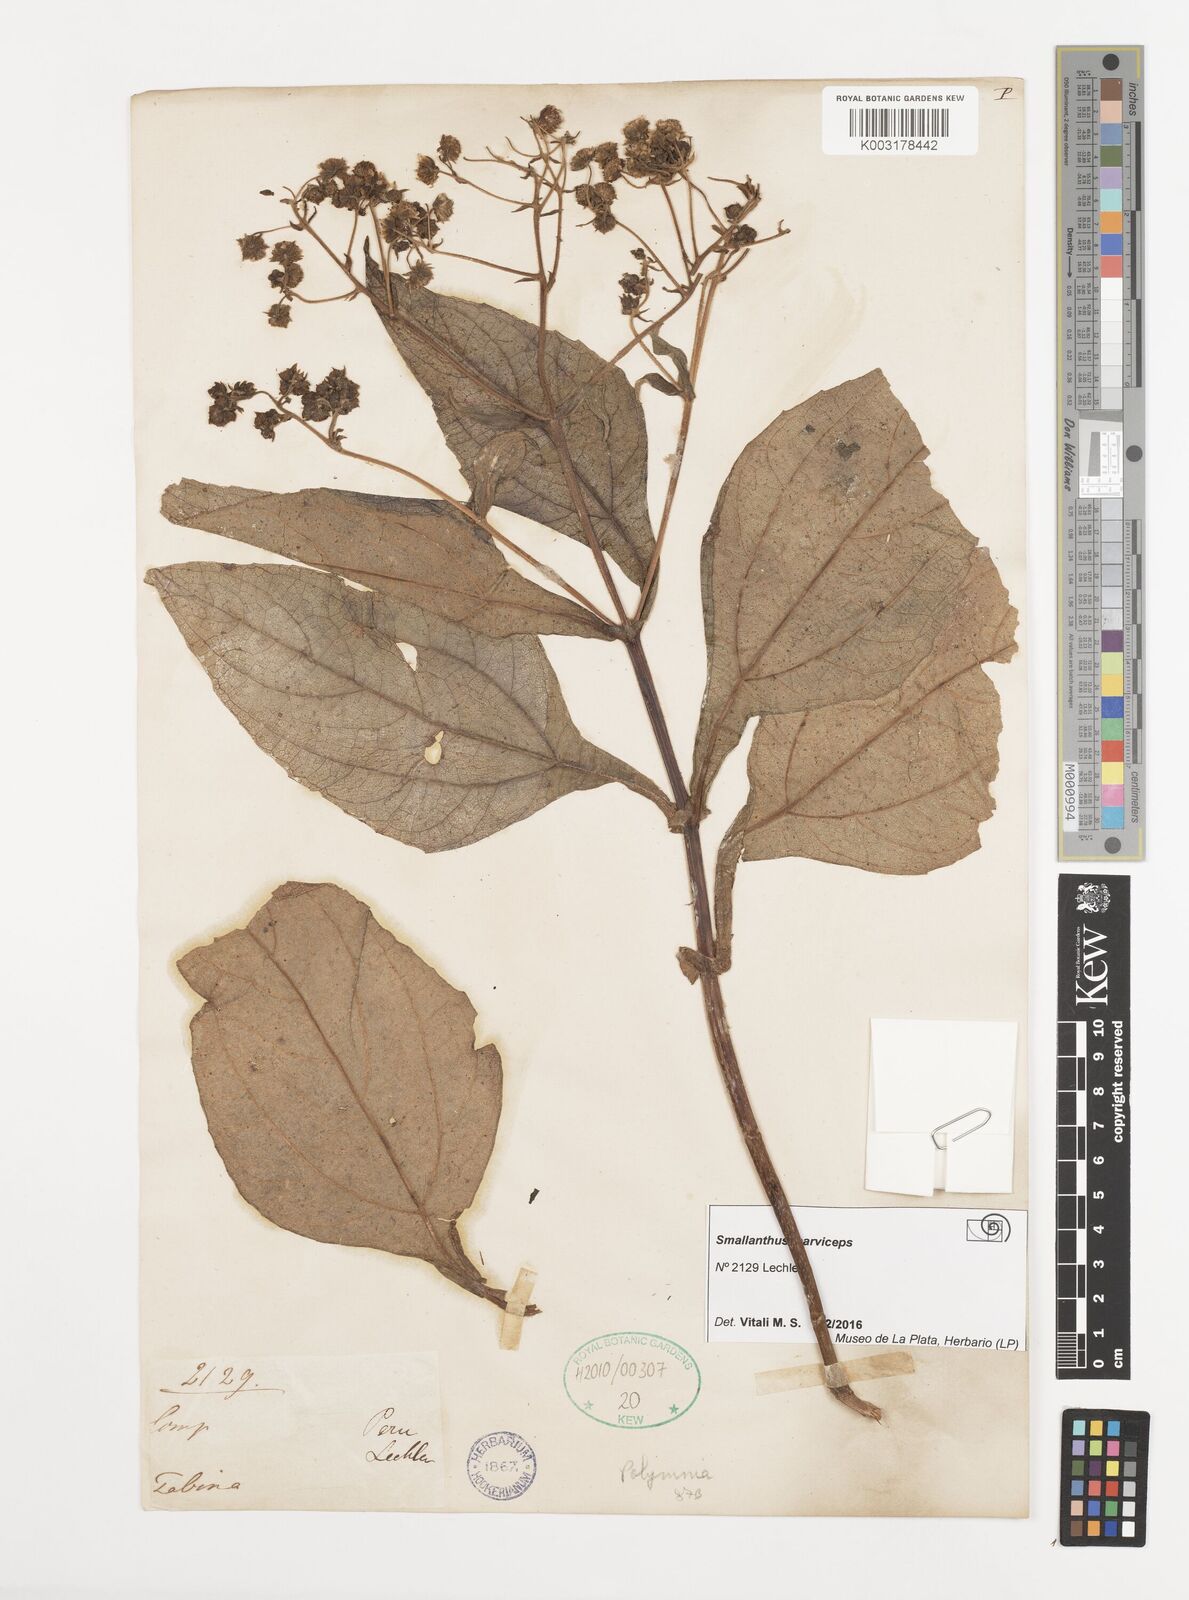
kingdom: Plantae
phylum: Tracheophyta
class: Magnoliopsida
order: Asterales
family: Asteraceae
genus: Smallanthus
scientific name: Smallanthus parviceps
